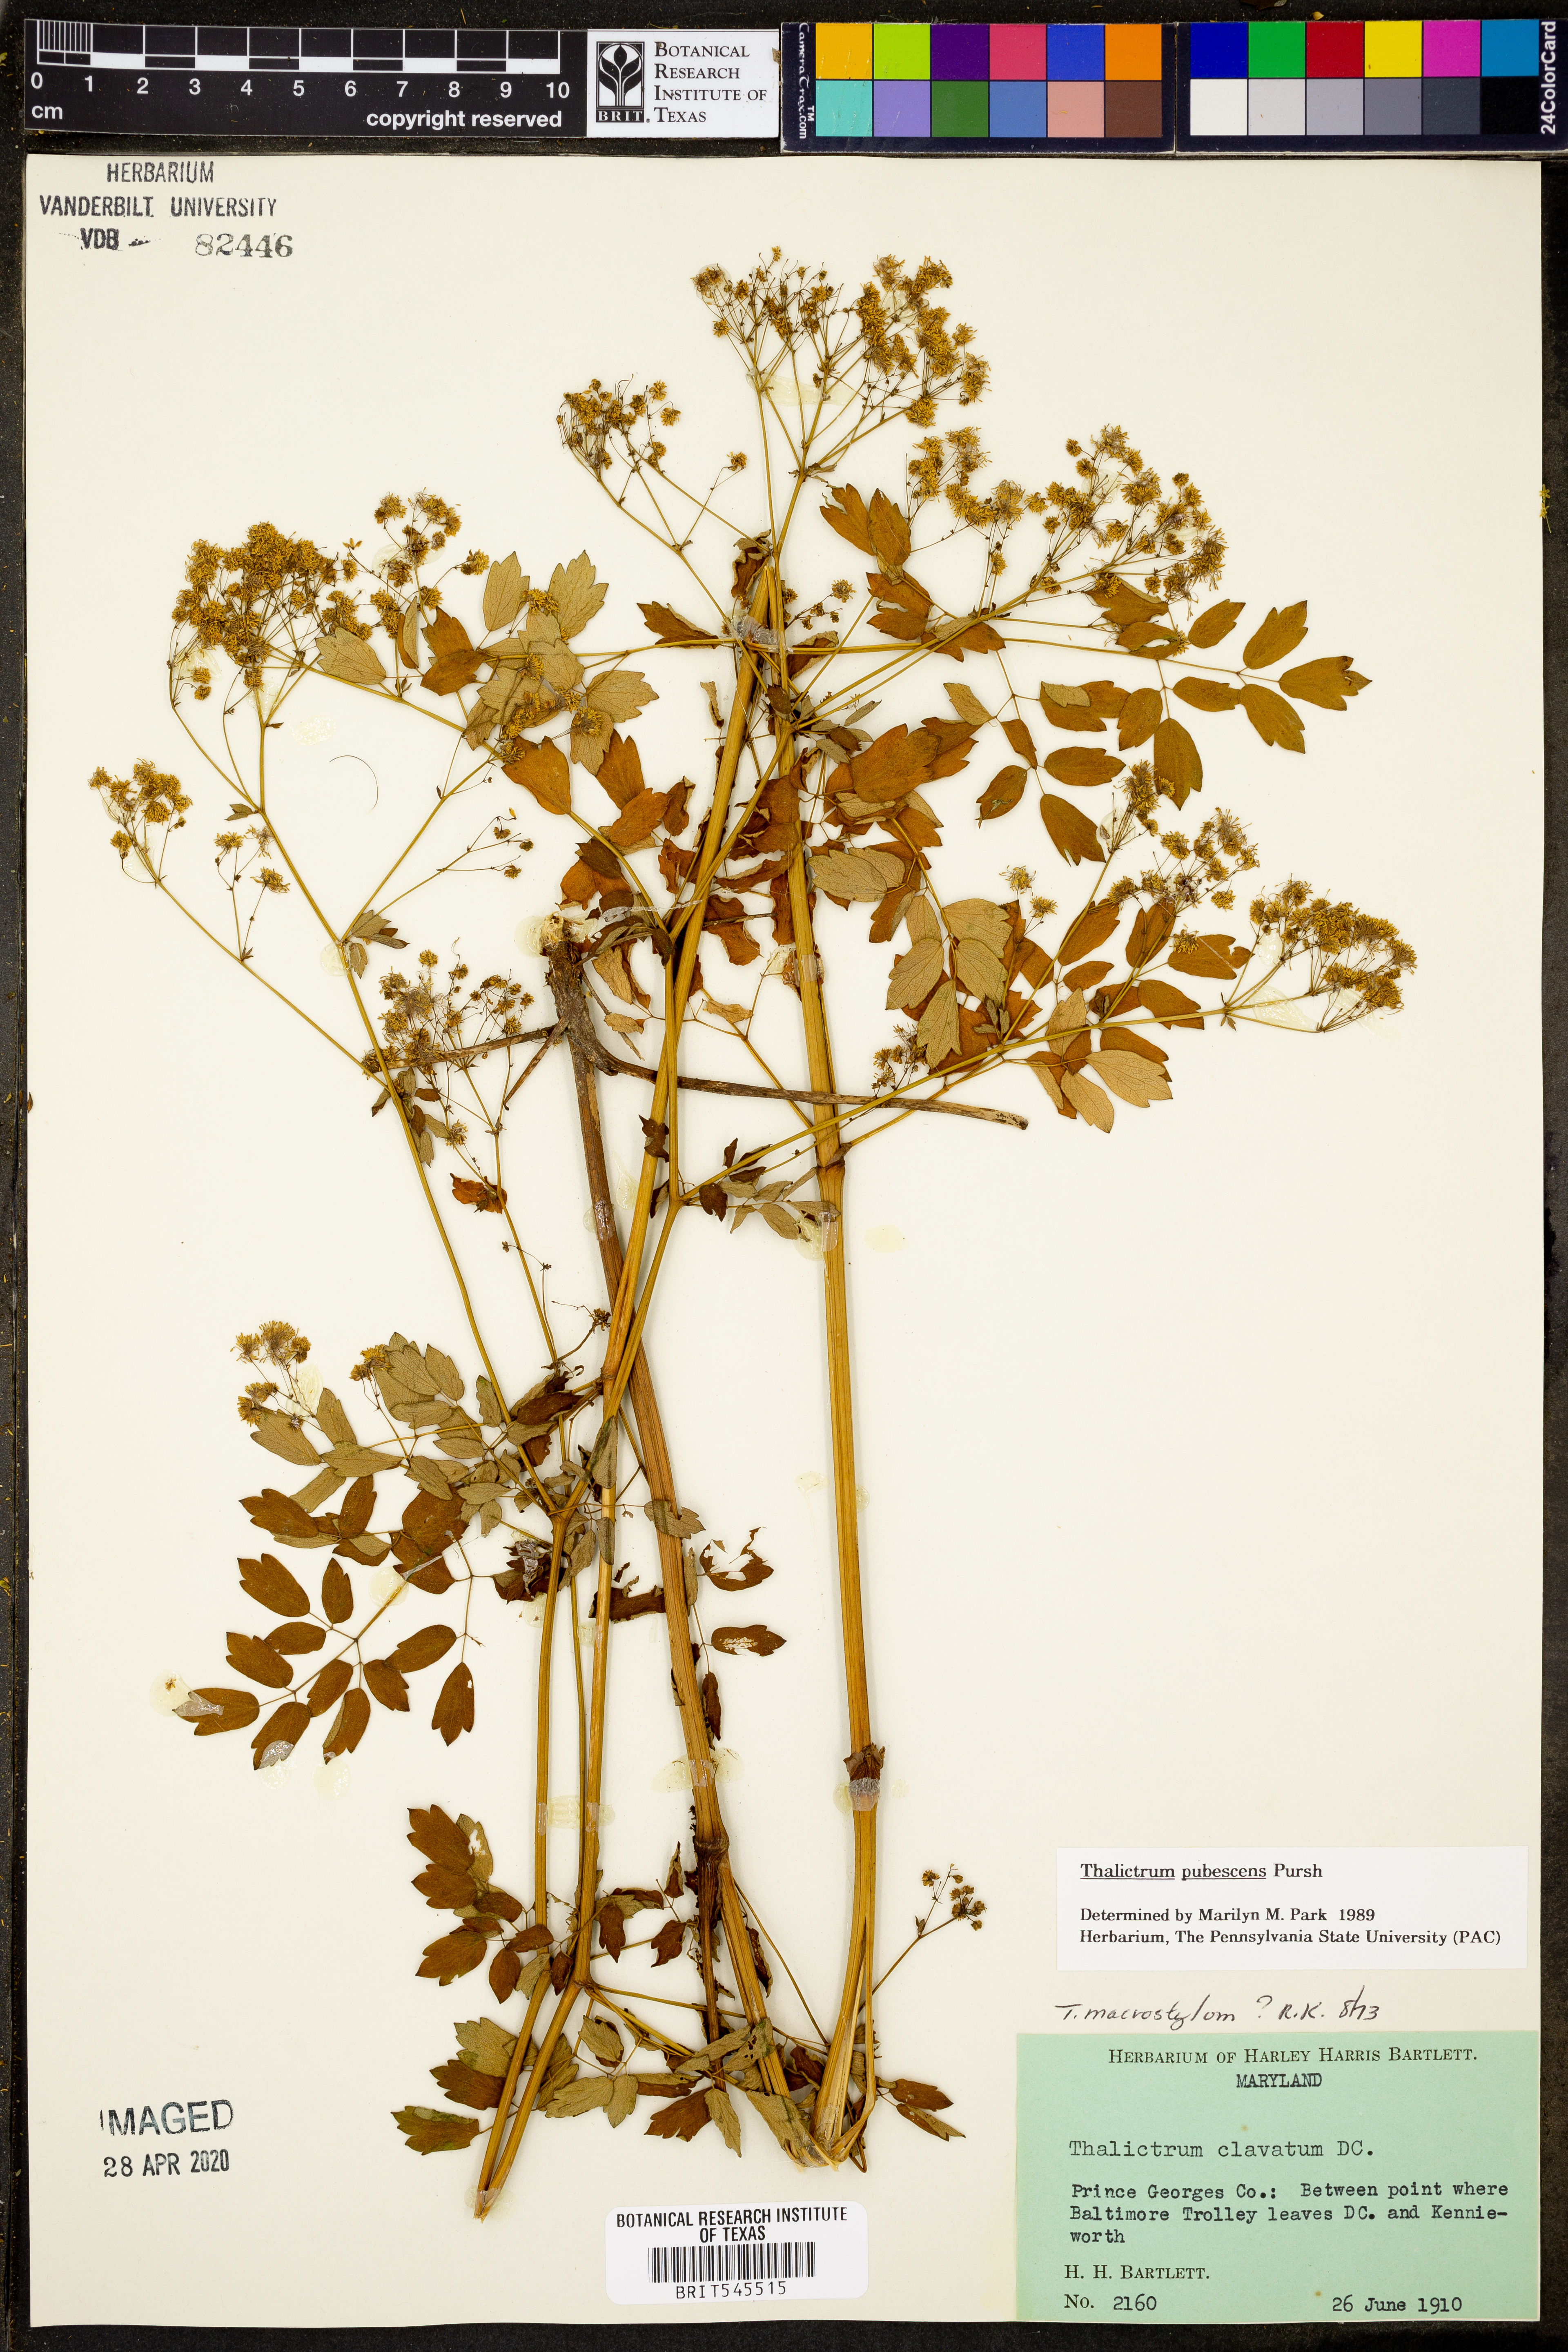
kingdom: Plantae
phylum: Tracheophyta
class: Magnoliopsida
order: Ranunculales
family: Ranunculaceae
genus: Thalictrum
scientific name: Thalictrum pubescens
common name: King-of-the-meadow
